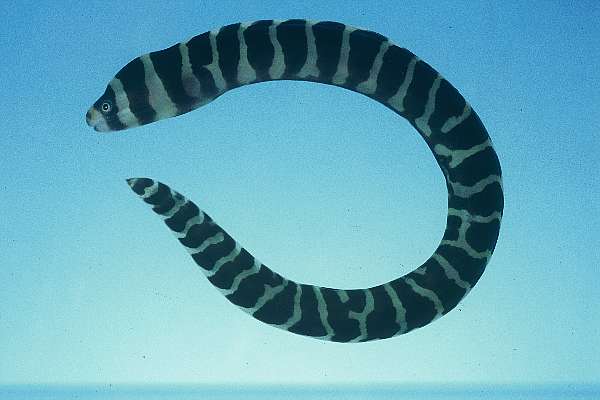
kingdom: Animalia
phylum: Chordata
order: Anguilliformes
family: Muraenidae
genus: Echidna
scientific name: Echidna polyzona
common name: Barred moray
